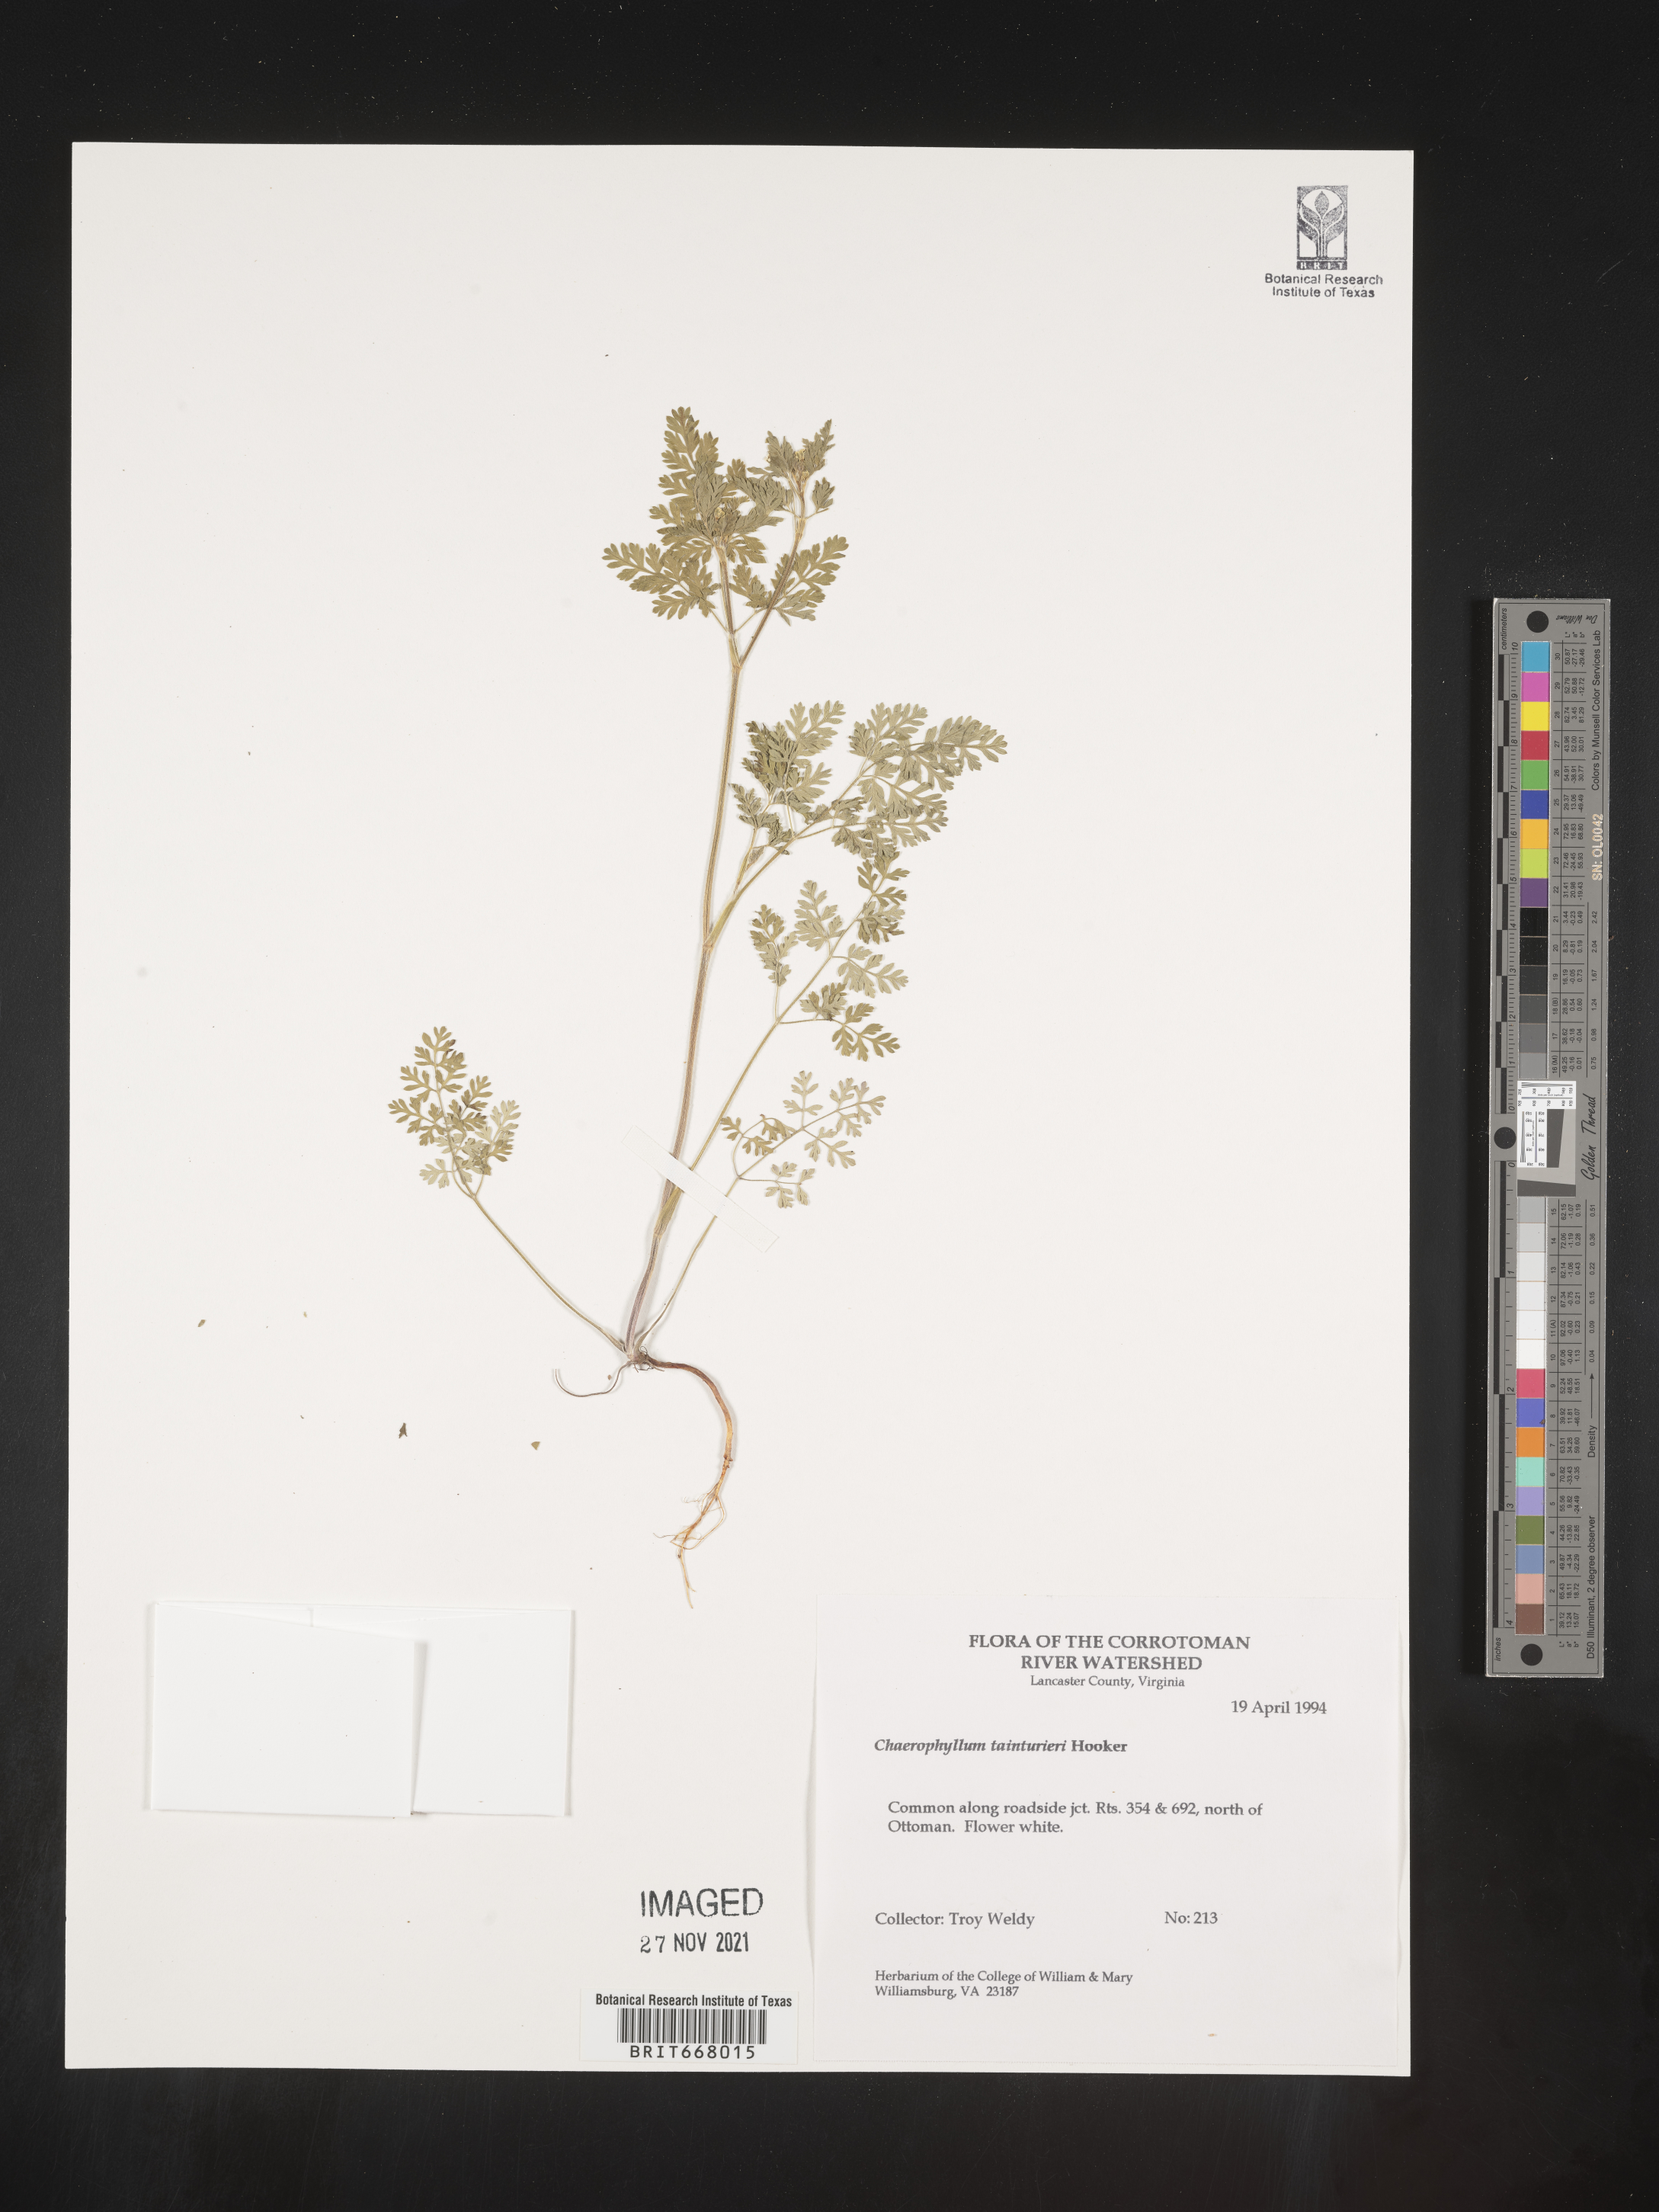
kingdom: Plantae
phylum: Tracheophyta
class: Magnoliopsida
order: Apiales
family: Apiaceae
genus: Chaerophyllum
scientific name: Chaerophyllum tainturieri
